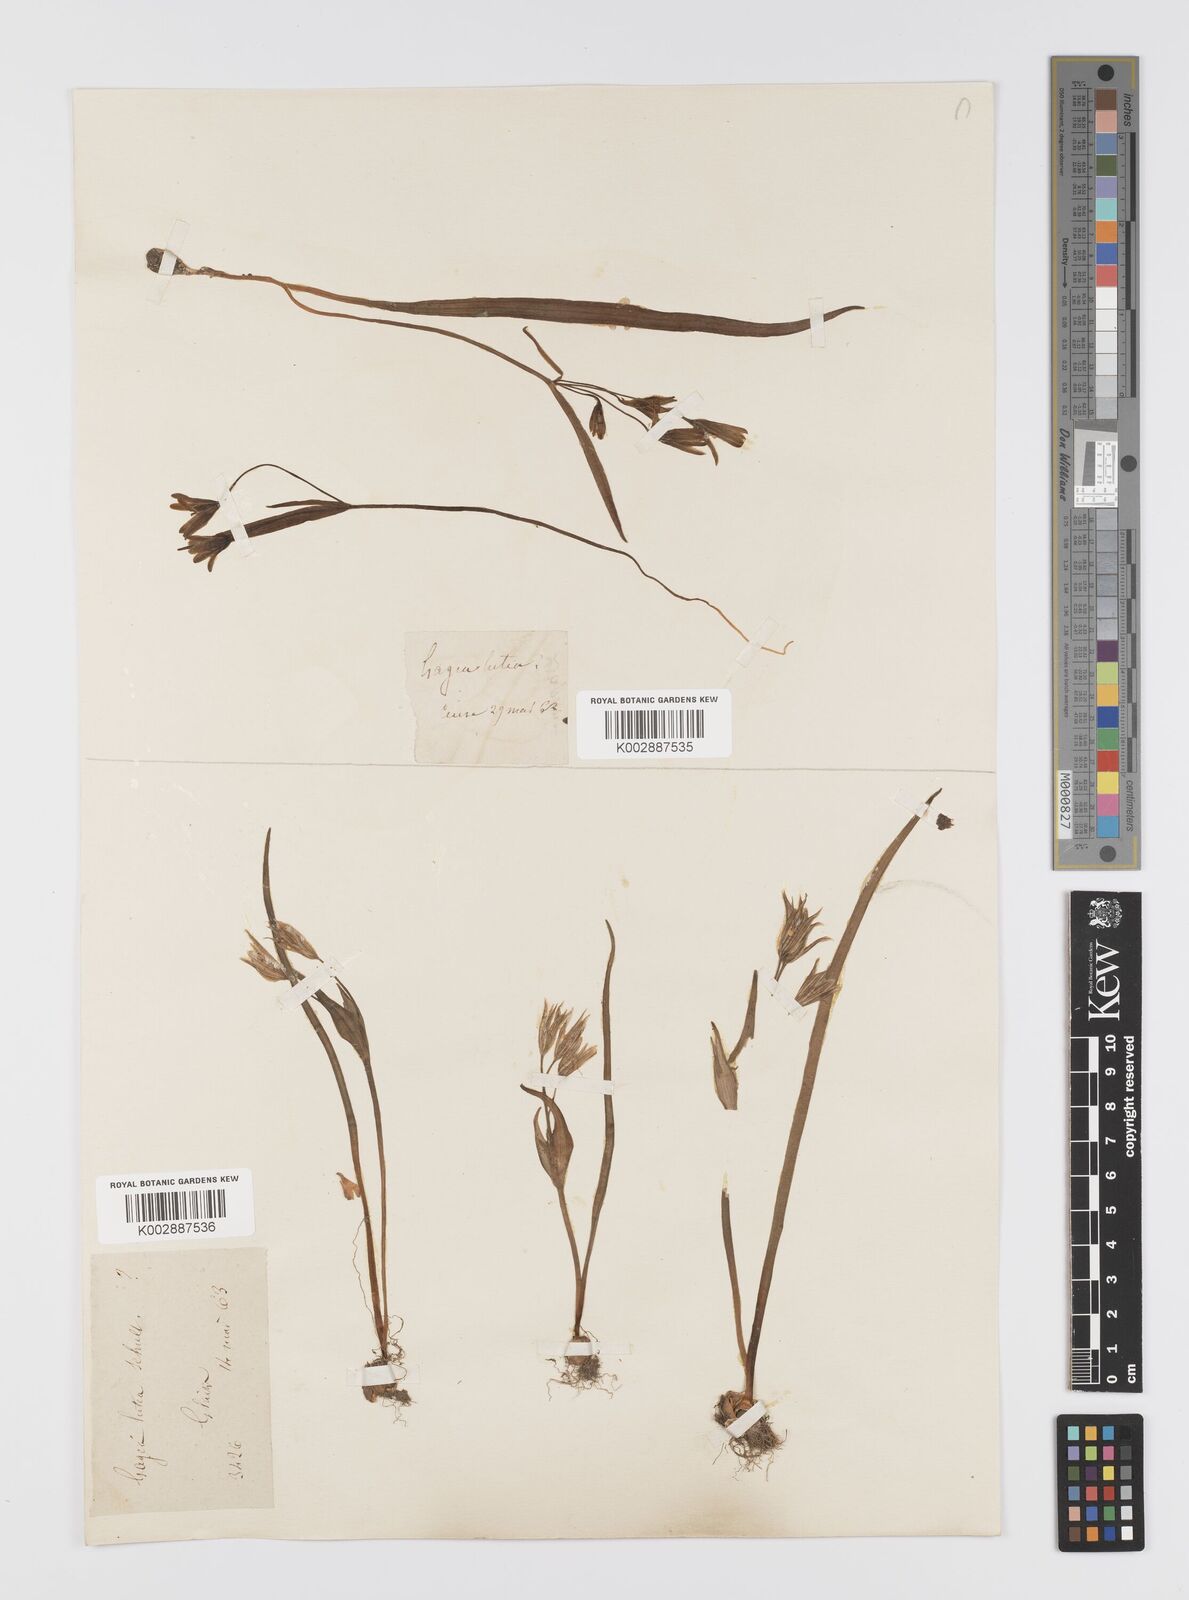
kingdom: Plantae
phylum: Tracheophyta
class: Liliopsida
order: Liliales
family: Liliaceae
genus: Gagea
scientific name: Gagea lutea
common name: Yellow star-of-bethlehem
